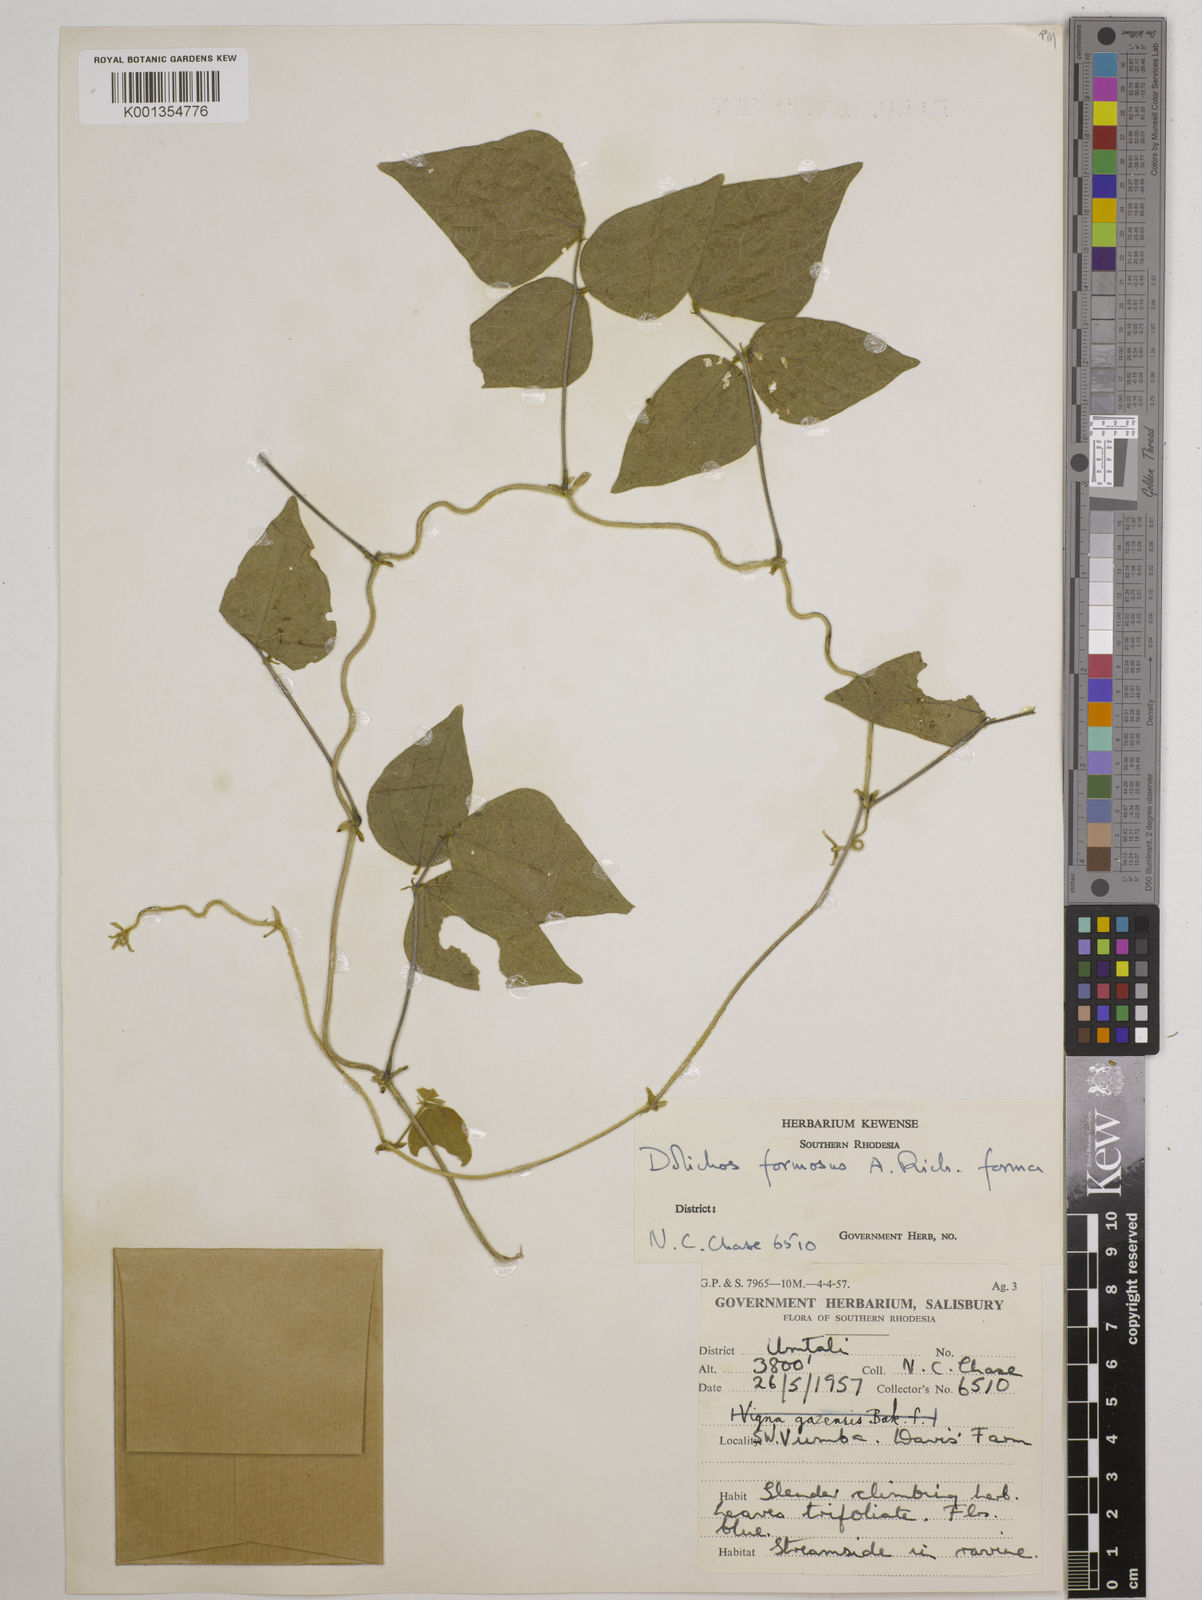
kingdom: Plantae
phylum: Tracheophyta
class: Magnoliopsida
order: Fabales
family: Fabaceae
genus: Dolichos
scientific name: Dolichos
